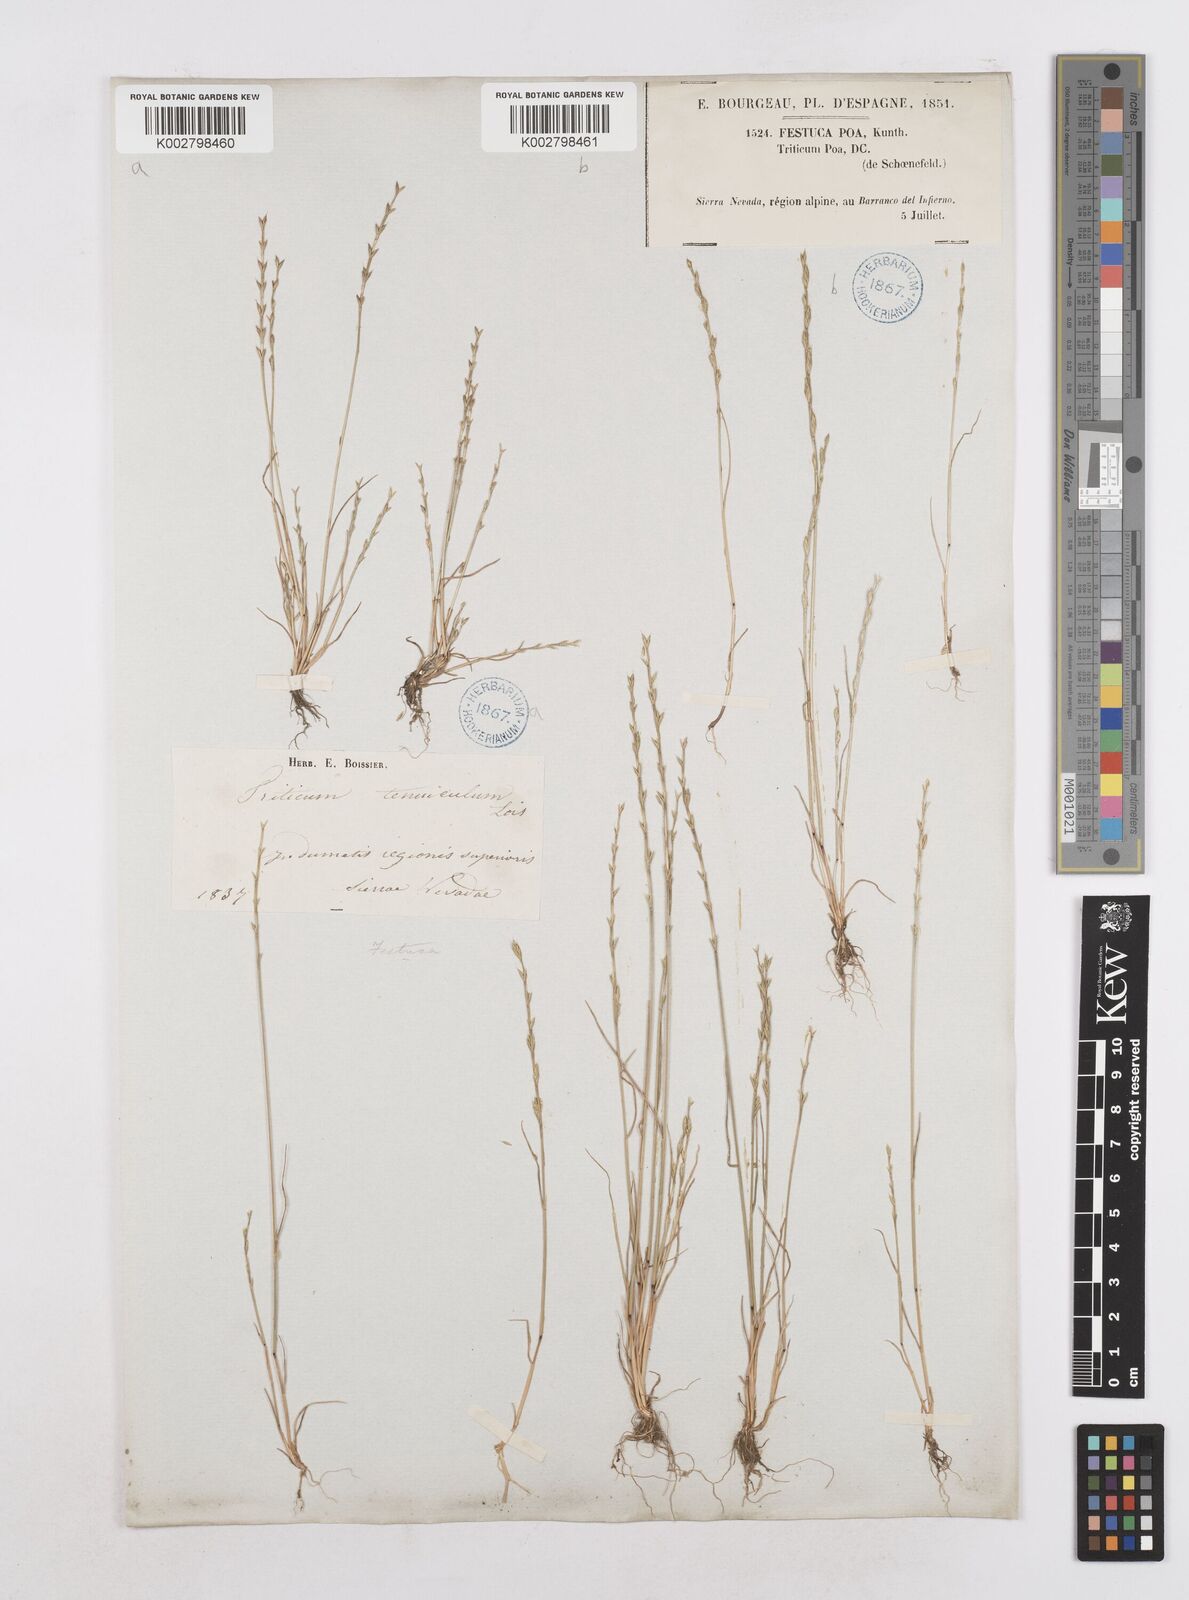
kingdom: Plantae
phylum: Tracheophyta
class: Liliopsida
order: Poales
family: Poaceae
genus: Festuca
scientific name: Festuca lachenalii
